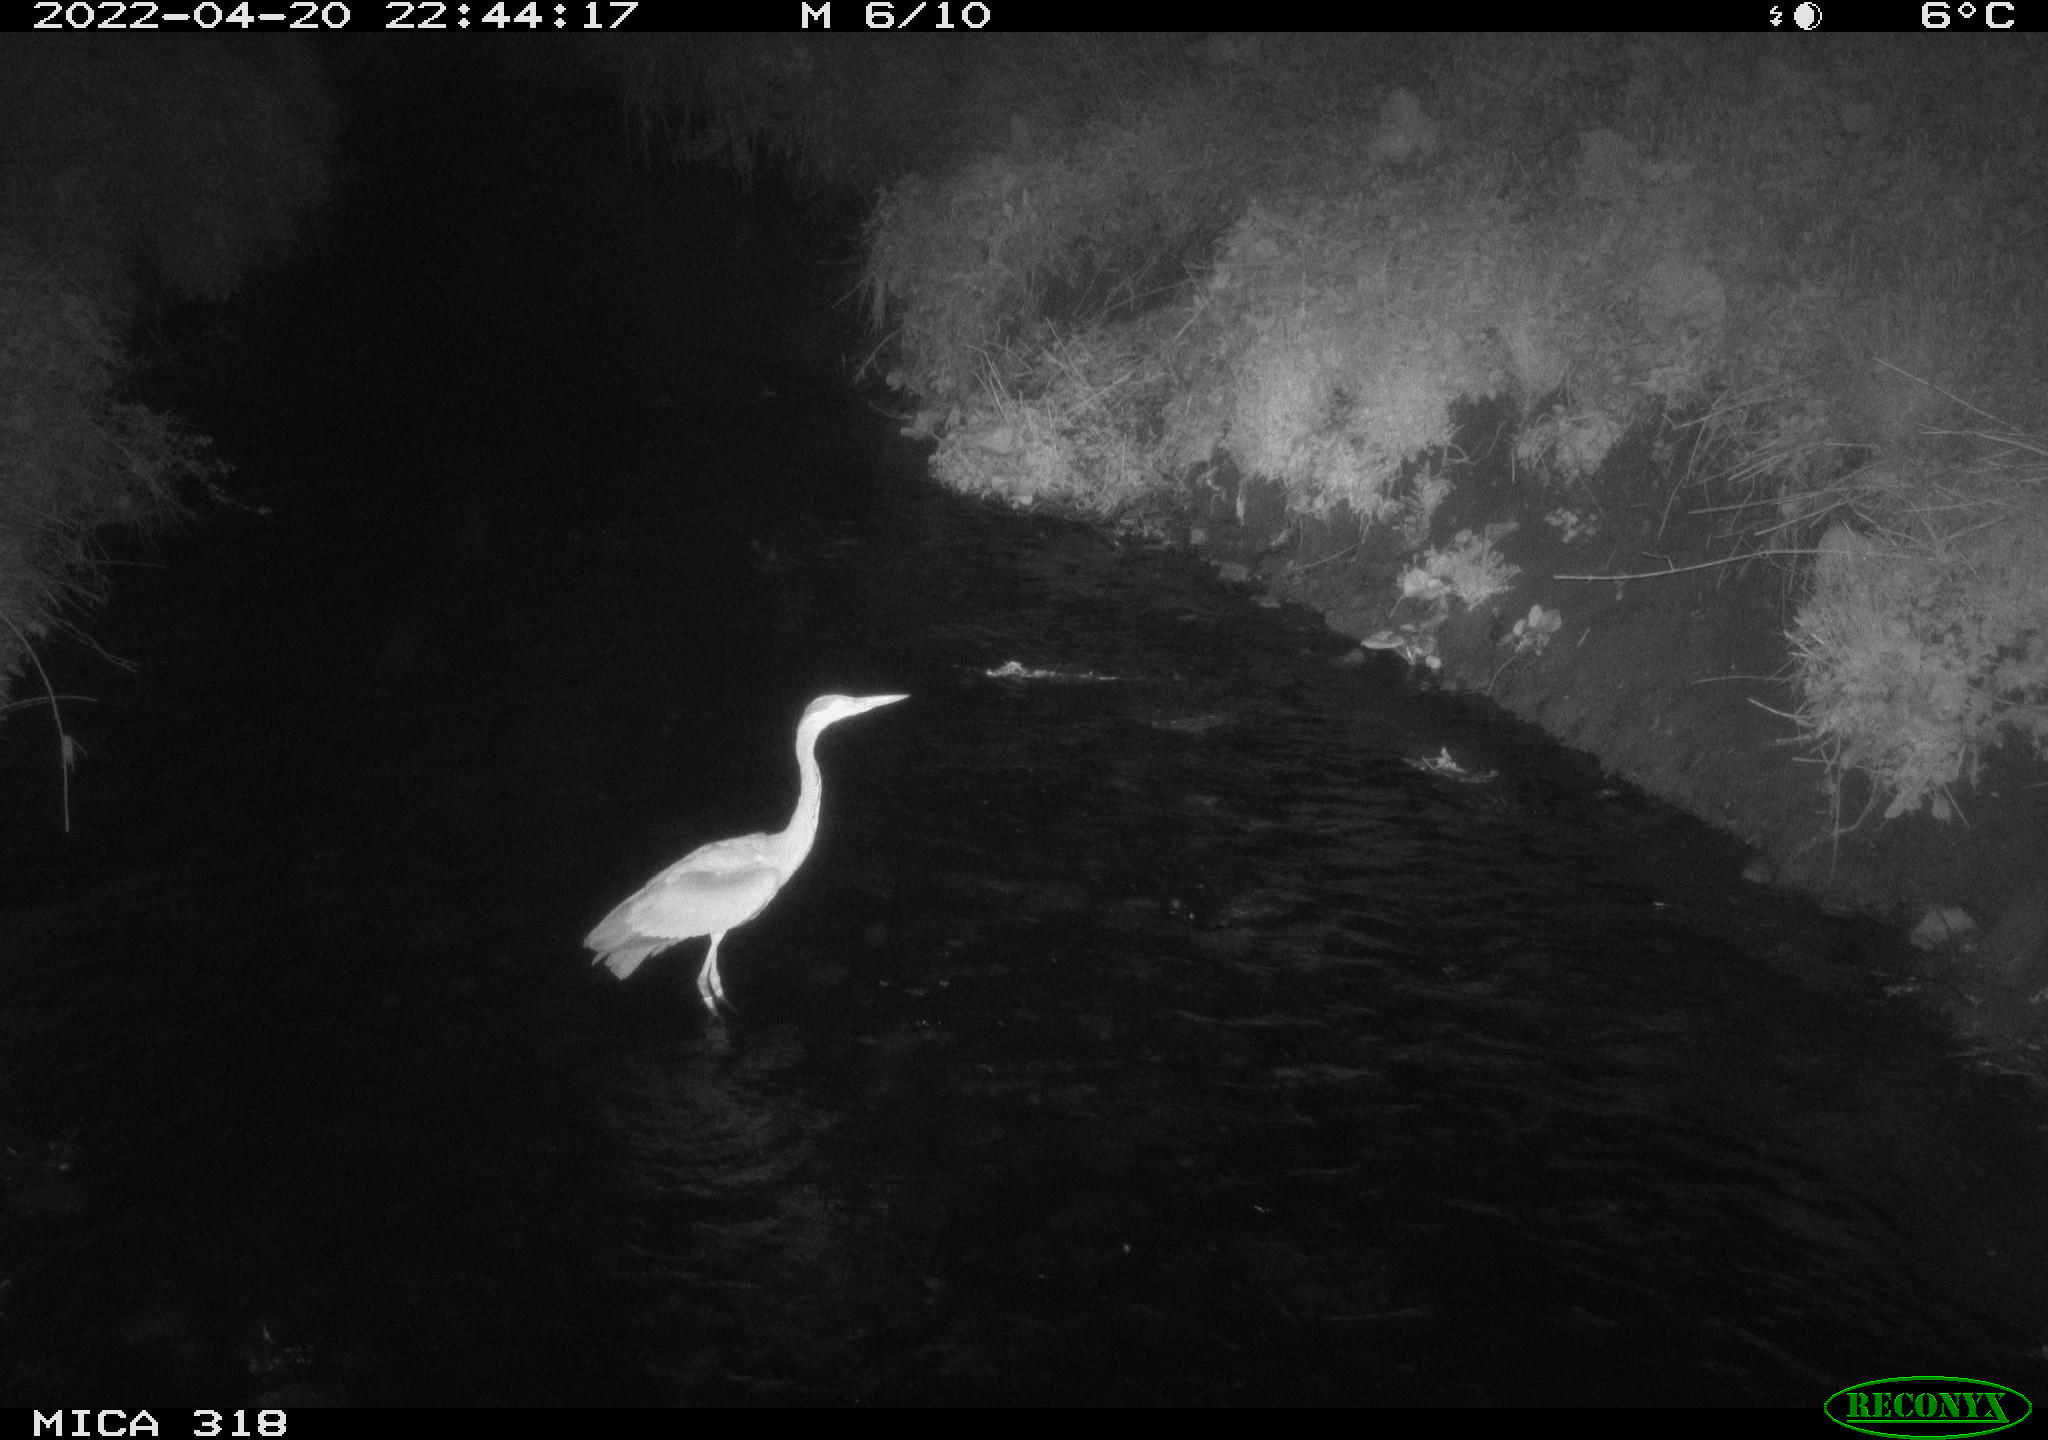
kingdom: Animalia
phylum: Chordata
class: Aves
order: Pelecaniformes
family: Ardeidae
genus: Ardea
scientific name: Ardea
